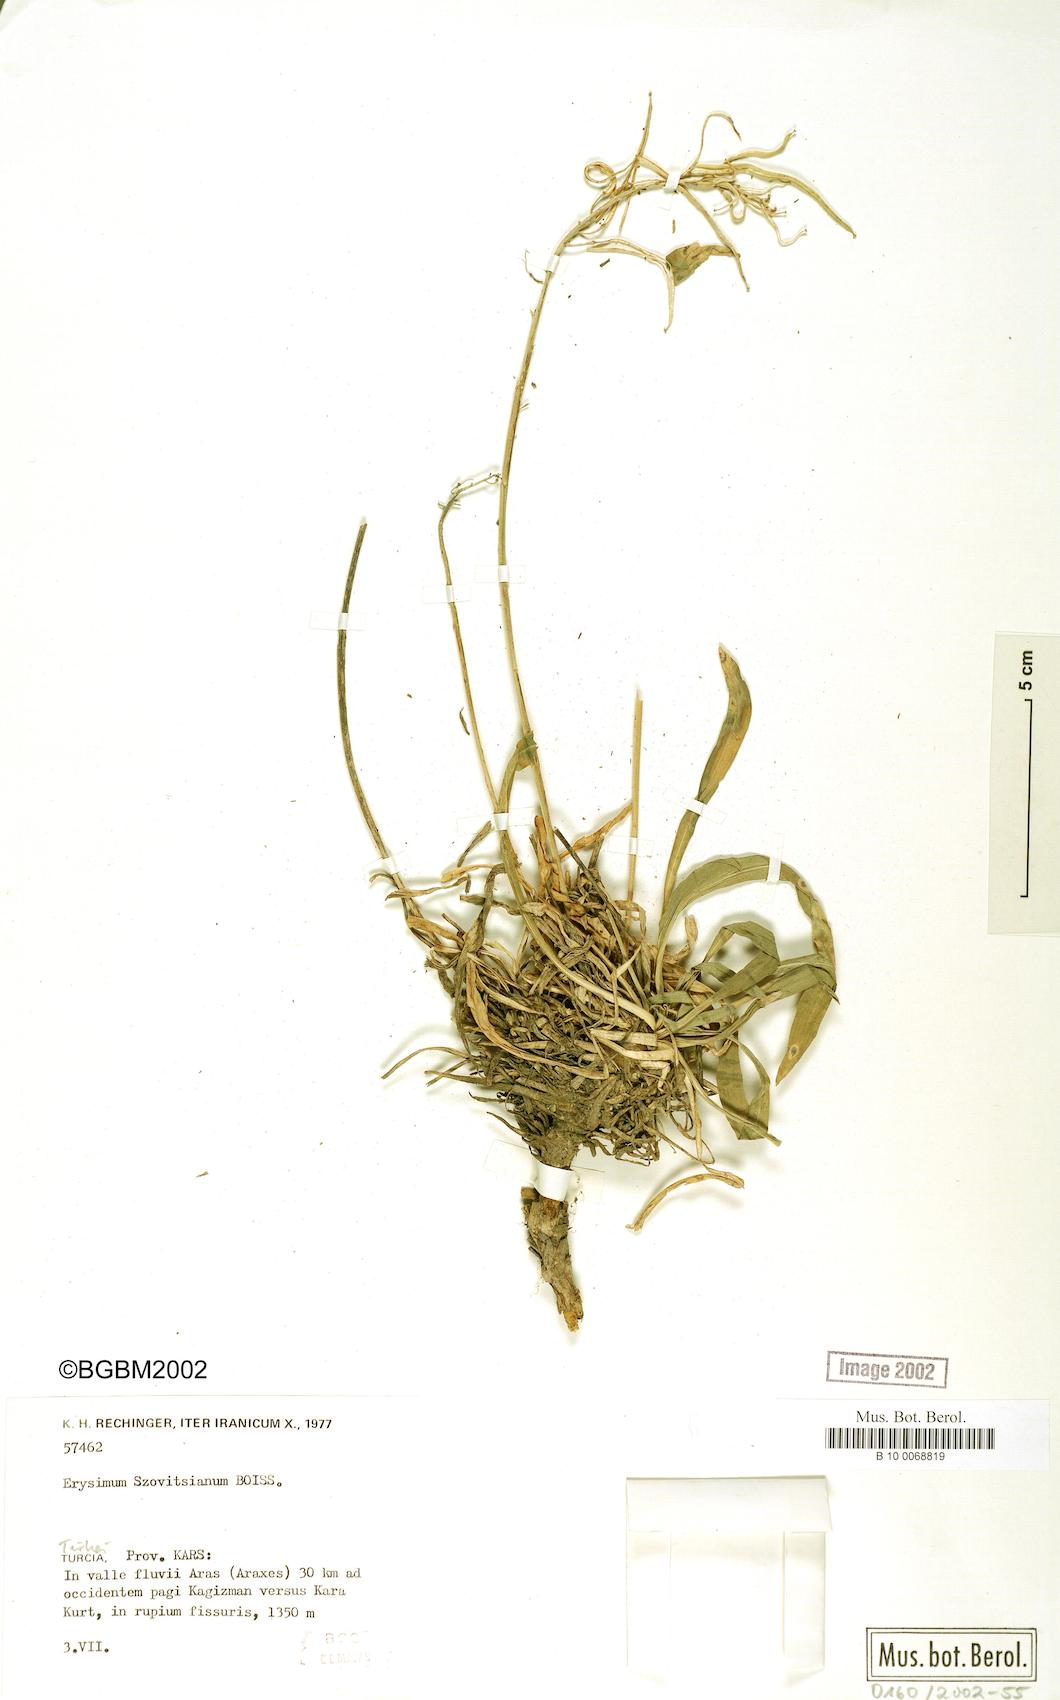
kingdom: Plantae
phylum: Tracheophyta
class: Magnoliopsida
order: Brassicales
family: Brassicaceae
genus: Erysimum
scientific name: Erysimum szowitsianum
